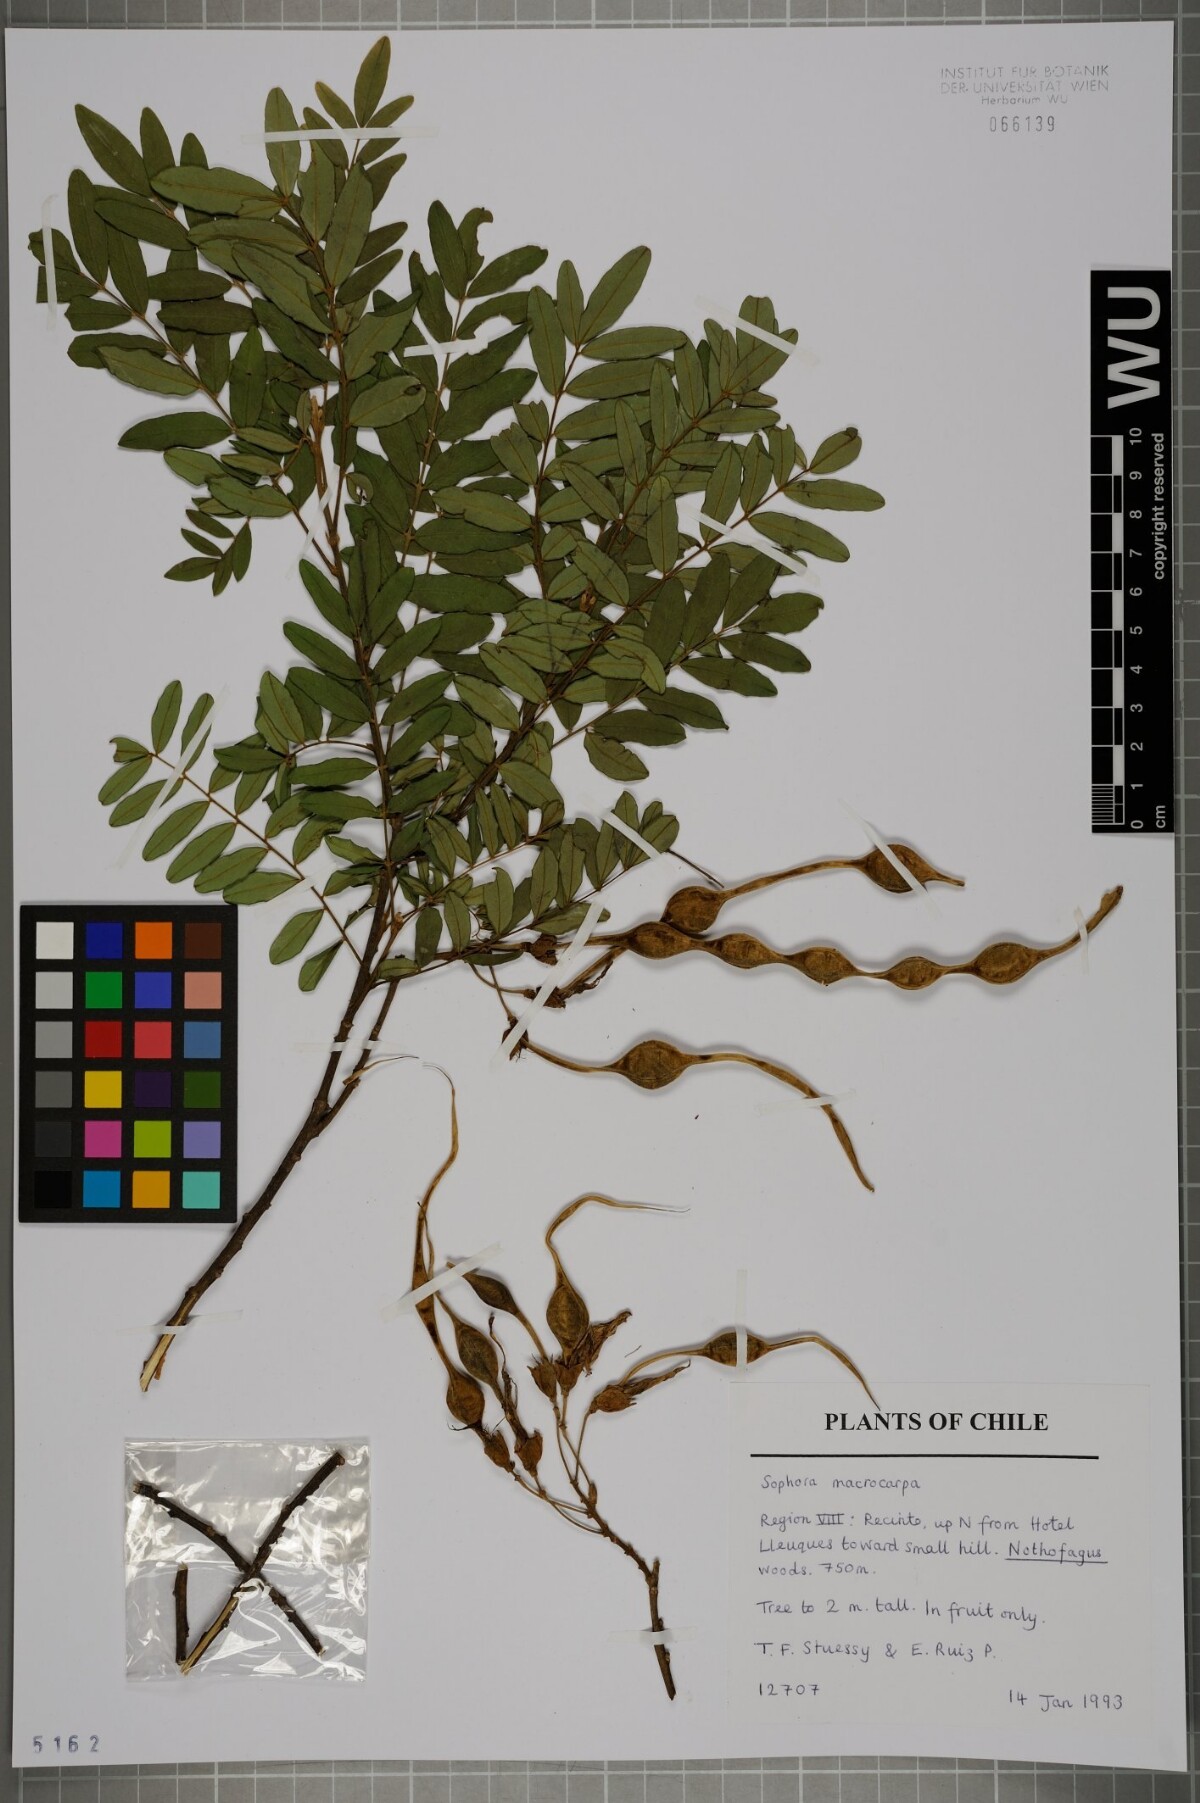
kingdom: Plantae
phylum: Tracheophyta
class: Magnoliopsida
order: Fabales
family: Fabaceae
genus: Sophora
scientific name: Sophora macrocarpa
